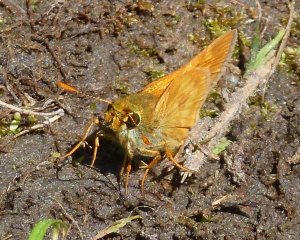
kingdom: Animalia
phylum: Arthropoda
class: Insecta
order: Lepidoptera
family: Hesperiidae
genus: Polites
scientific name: Polites themistocles
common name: Tawny-edged Skipper
